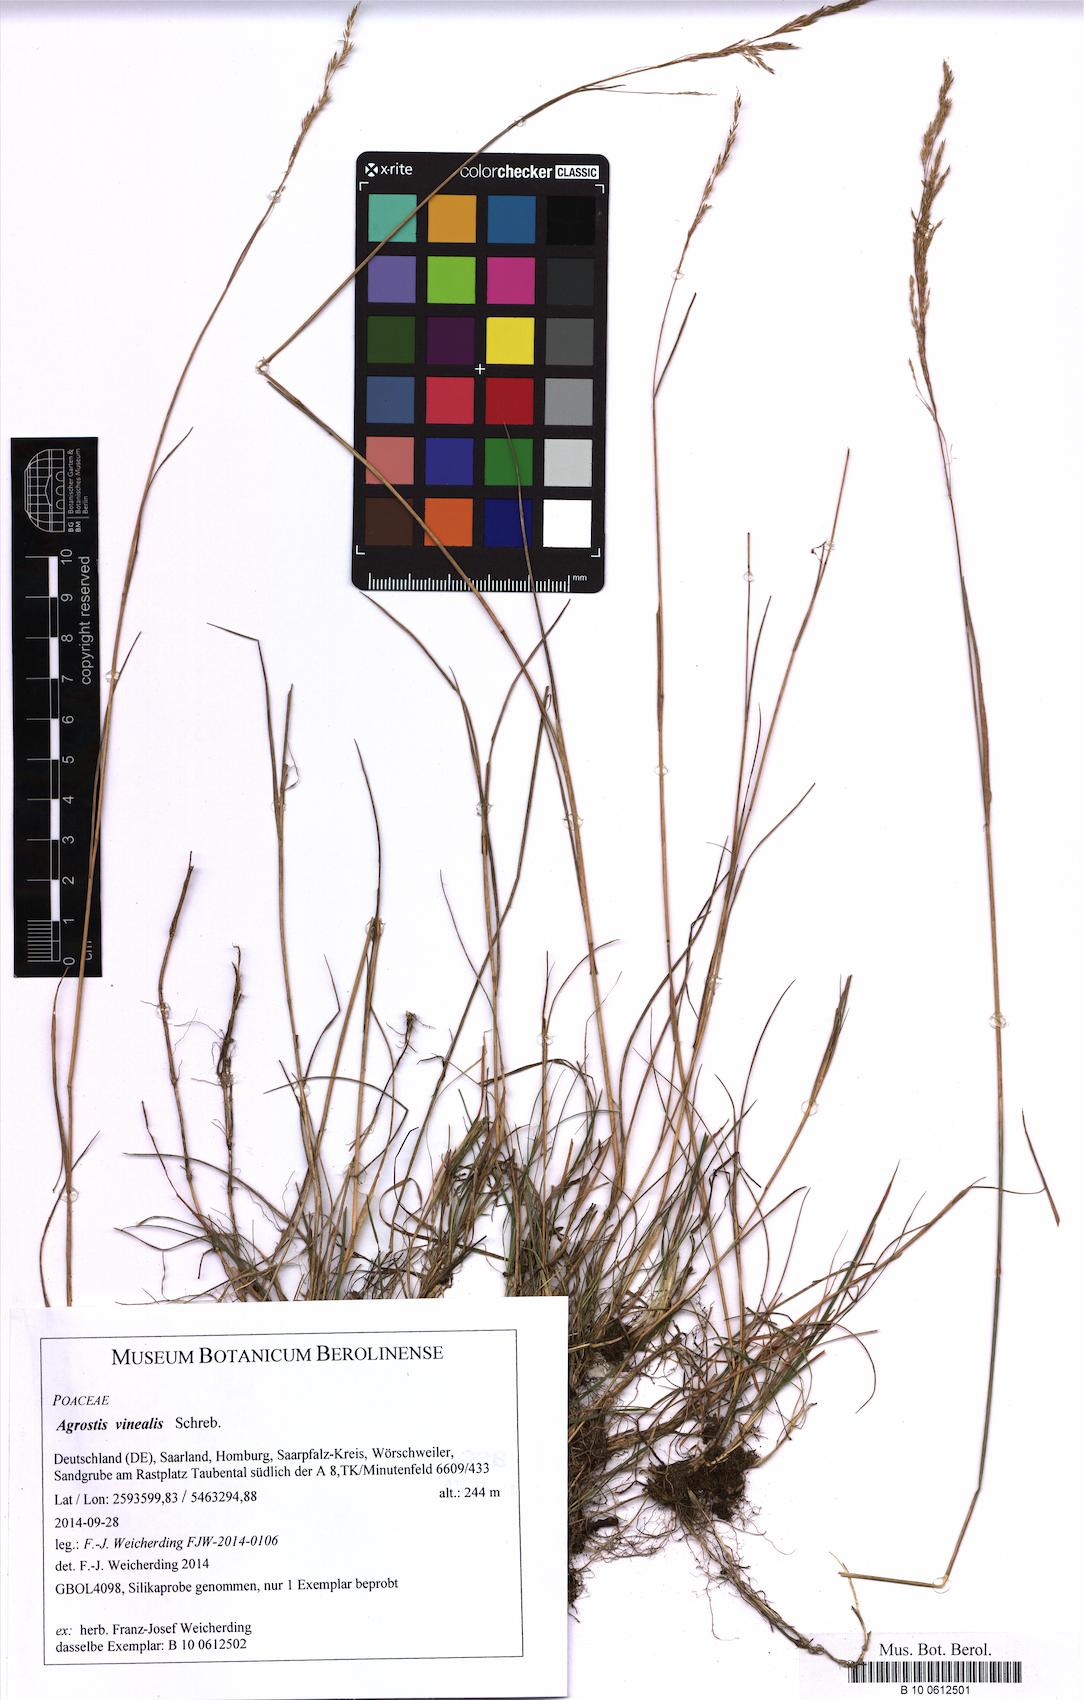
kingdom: Plantae
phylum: Tracheophyta
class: Liliopsida
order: Poales
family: Poaceae
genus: Agrostis
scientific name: Agrostis vinealis
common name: Brown bent
